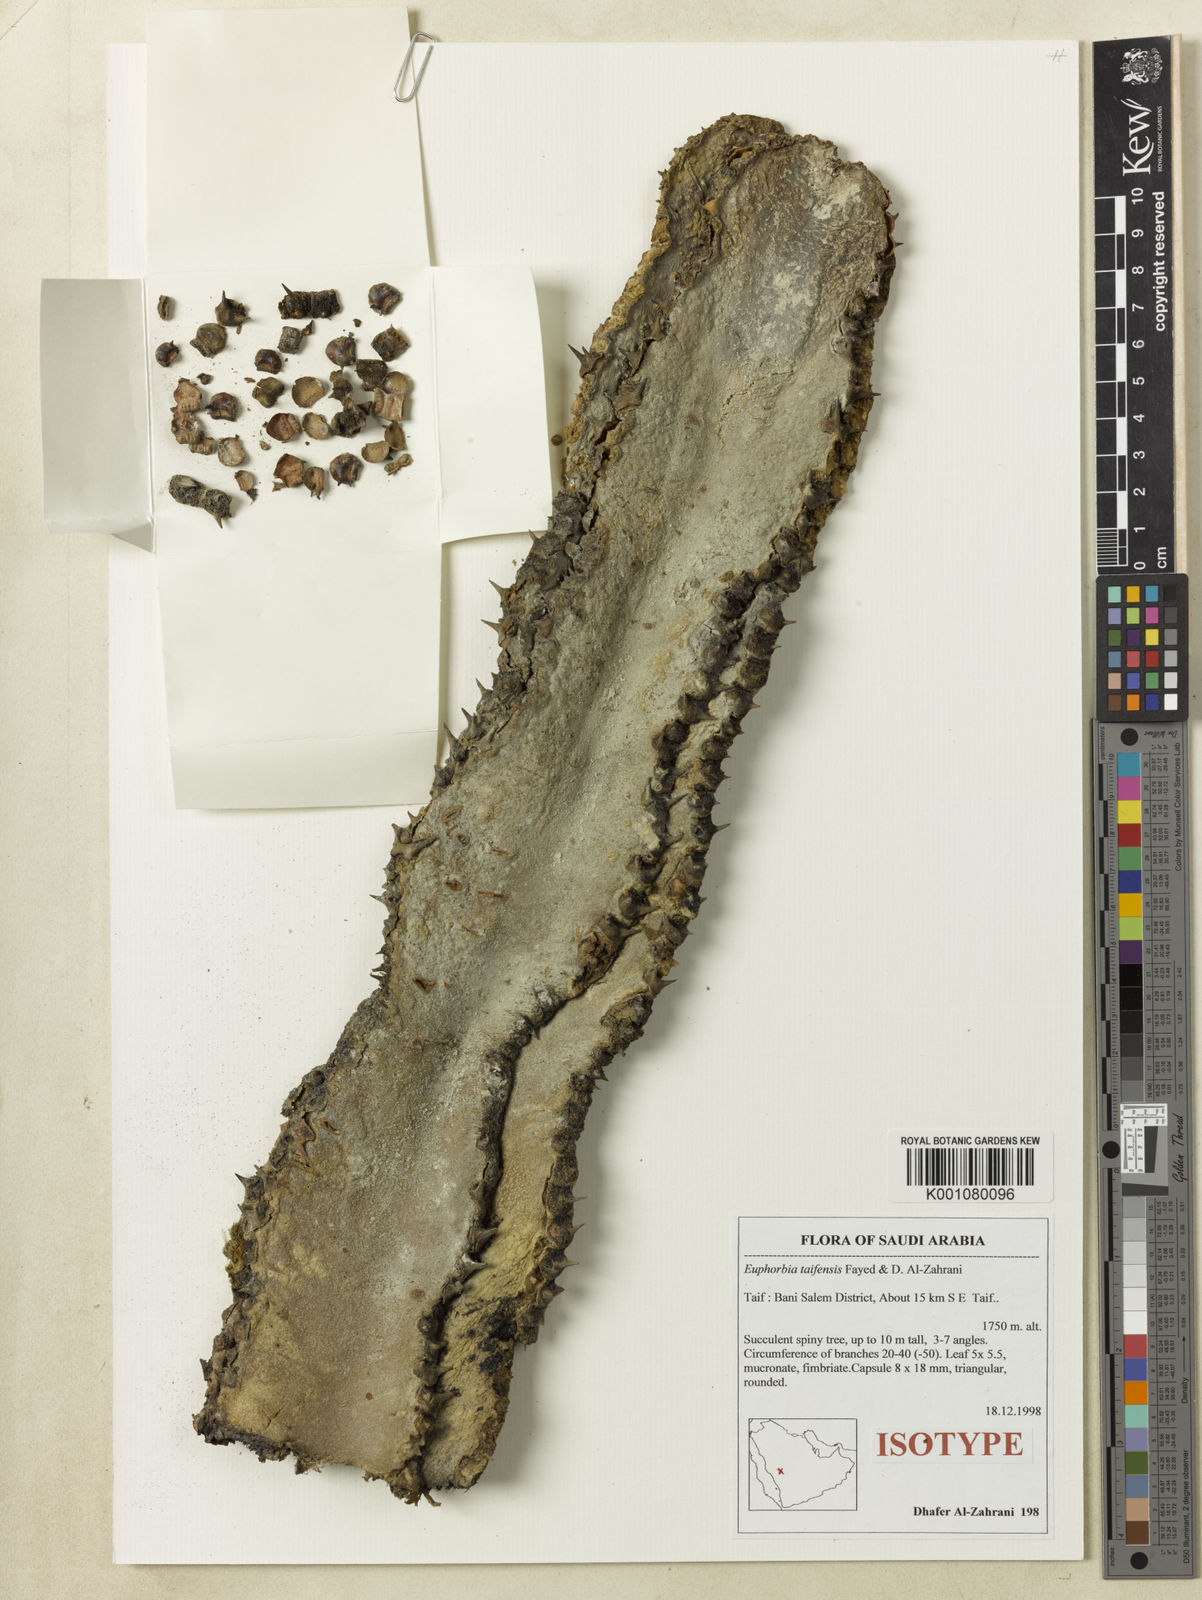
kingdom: Plantae
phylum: Tracheophyta
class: Magnoliopsida
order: Malpighiales
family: Euphorbiaceae
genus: Euphorbia
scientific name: Euphorbia taifensis
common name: Amaq
